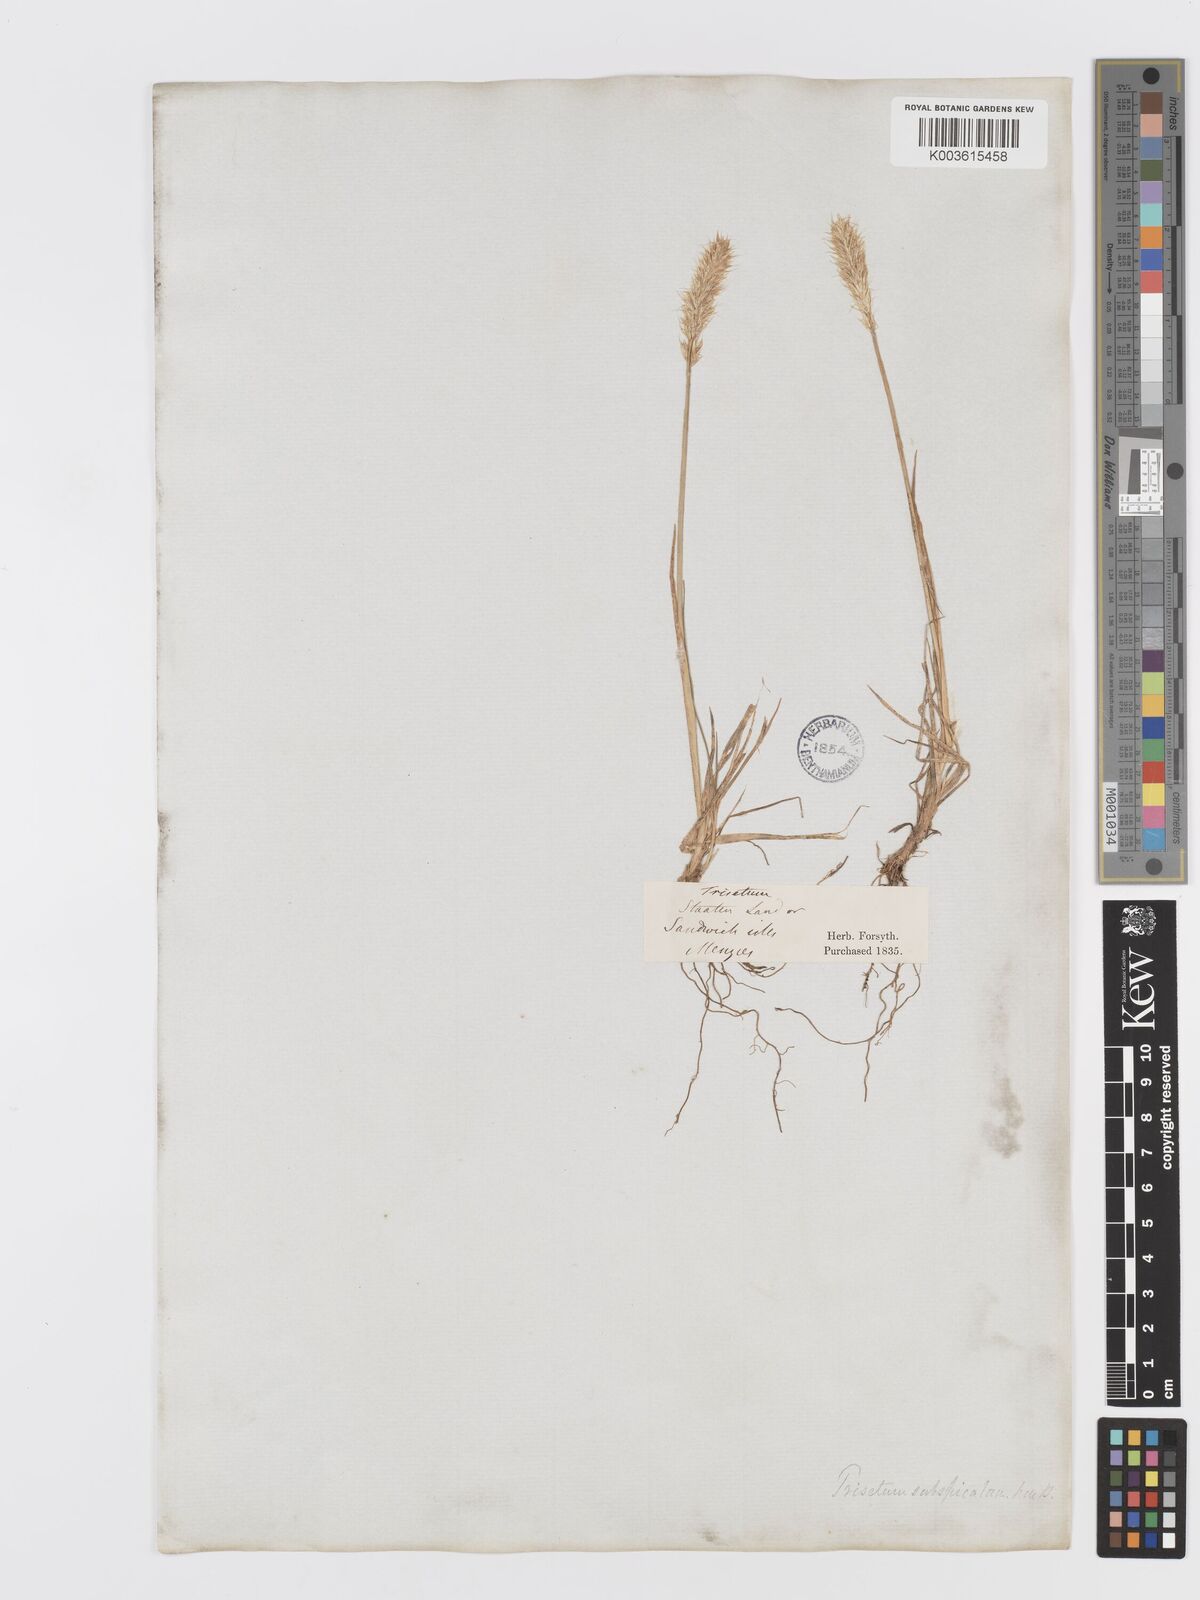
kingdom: Plantae
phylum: Tracheophyta
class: Liliopsida
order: Poales
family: Poaceae
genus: Trisetum
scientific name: Trisetum glomeratum
